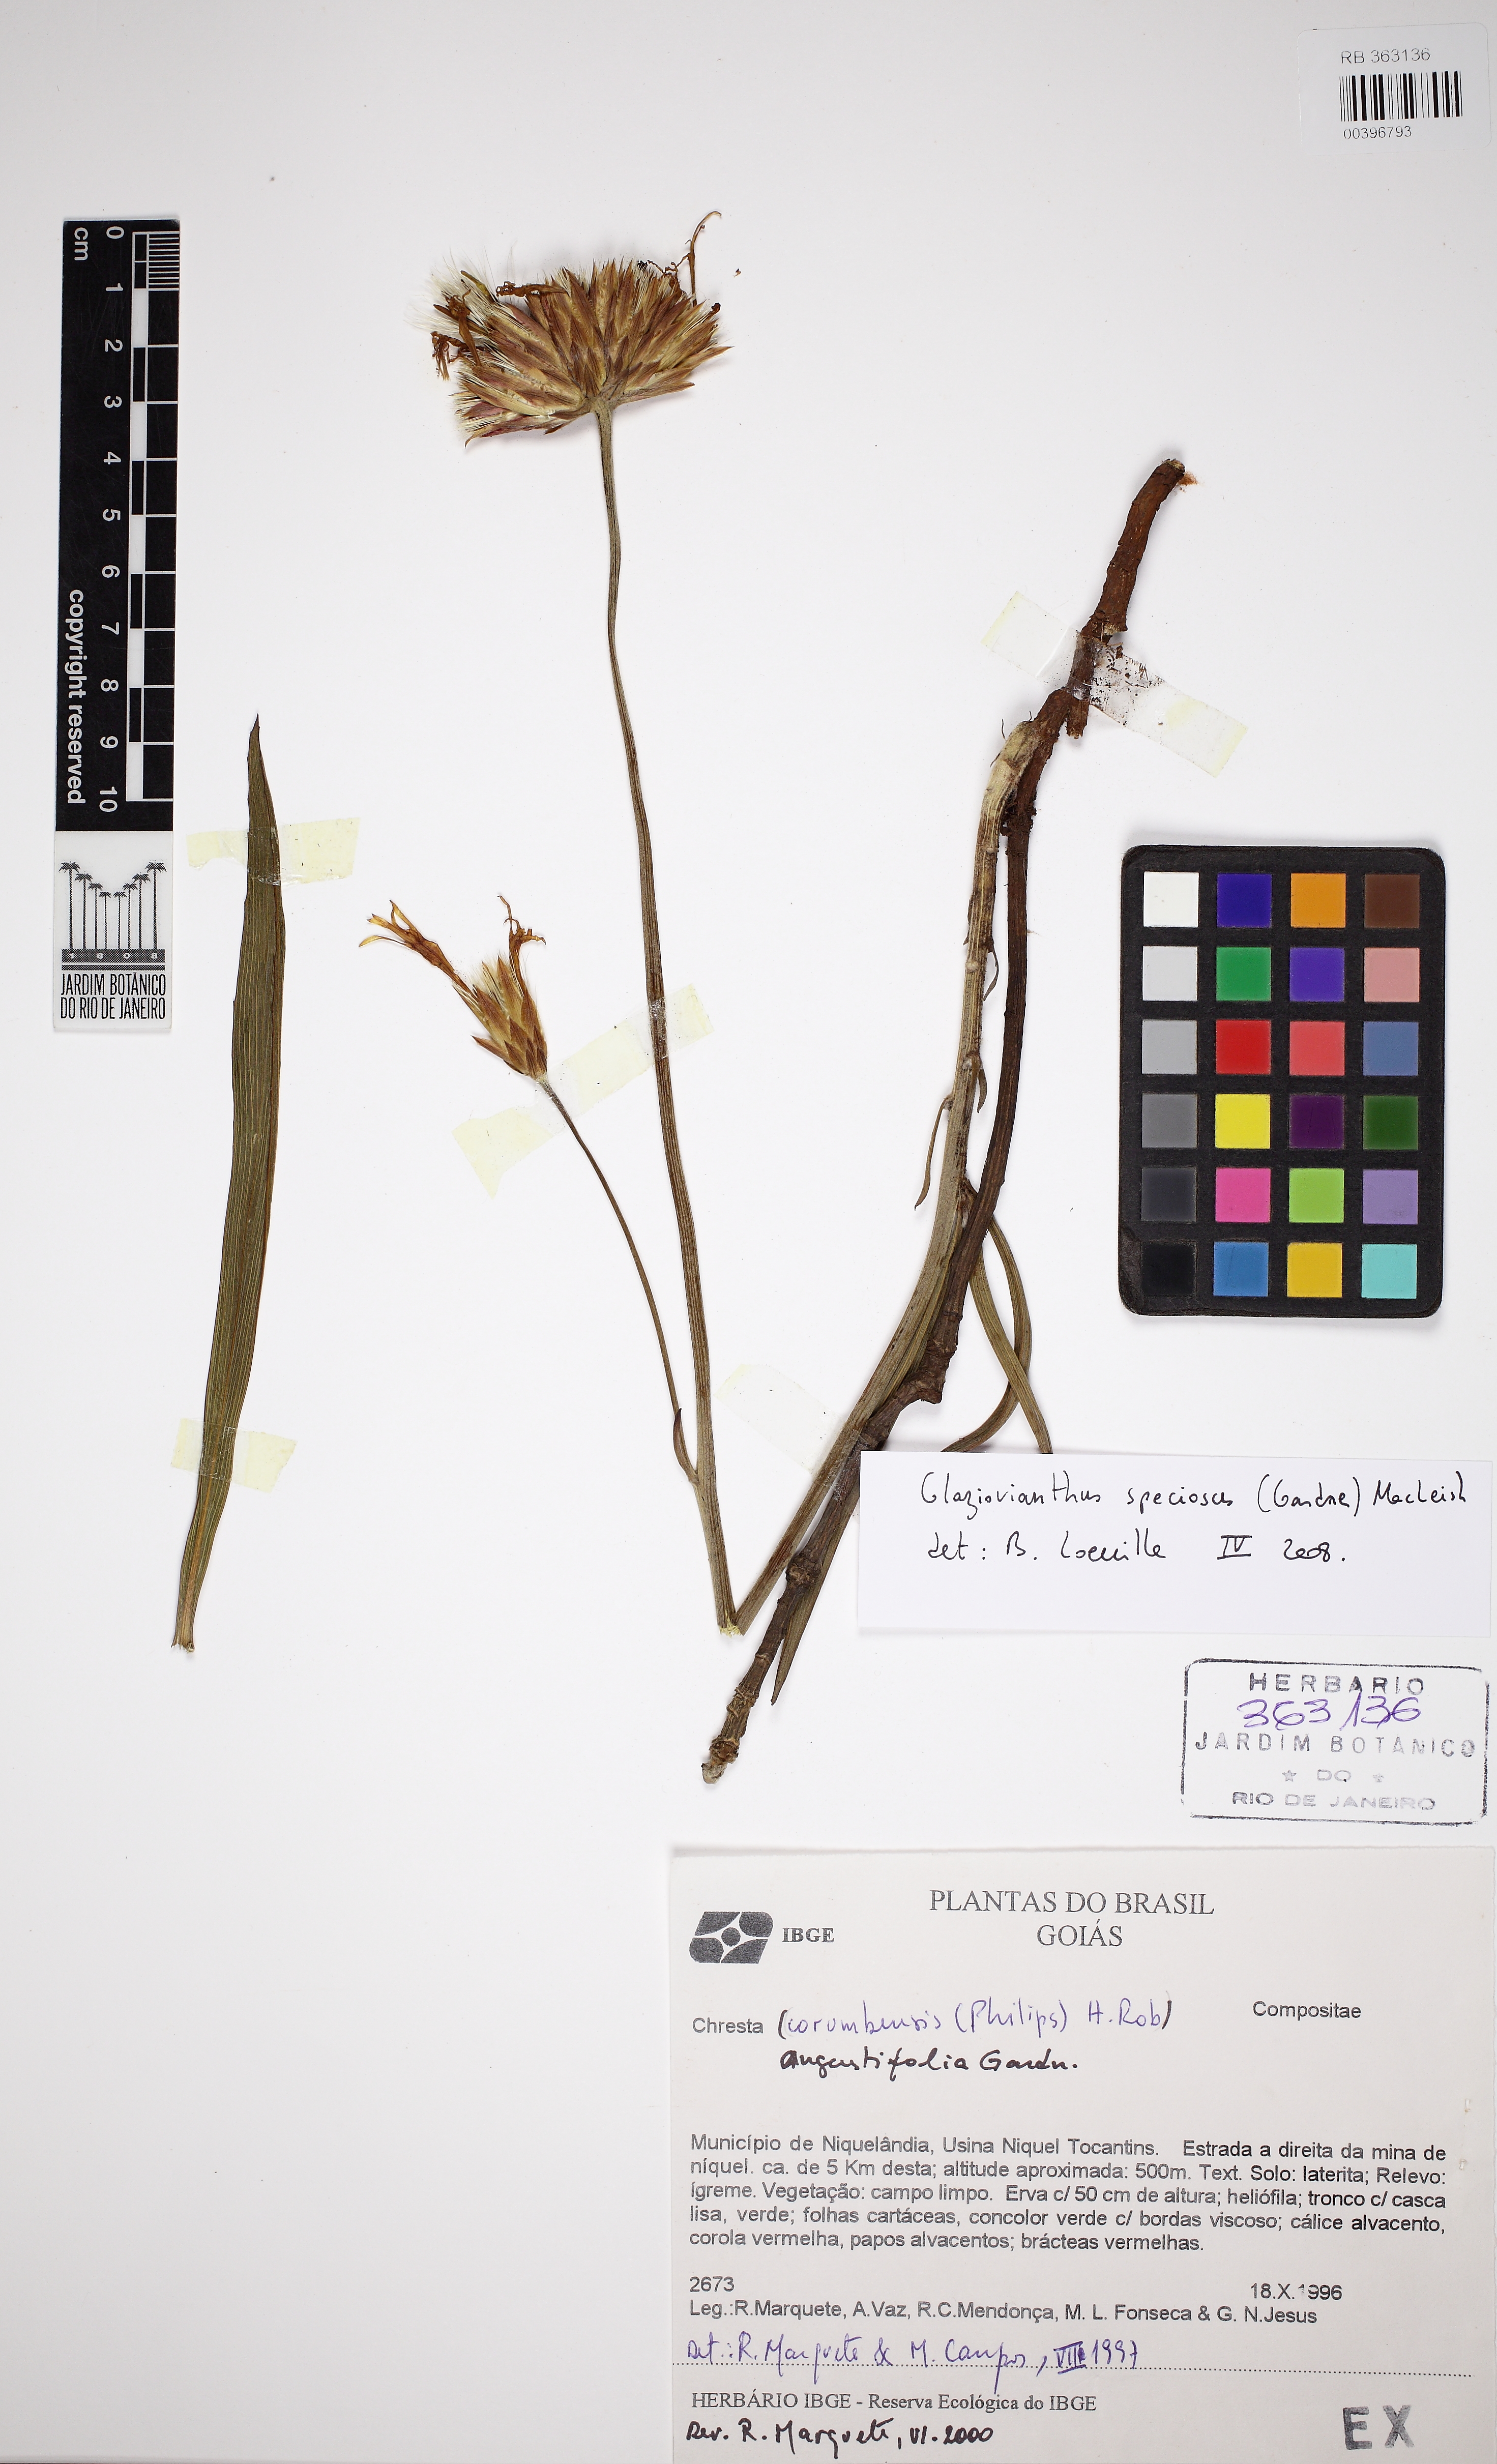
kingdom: Plantae
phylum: Tracheophyta
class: Magnoliopsida
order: Asterales
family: Asteraceae
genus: Chresta
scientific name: Chresta speciosa
